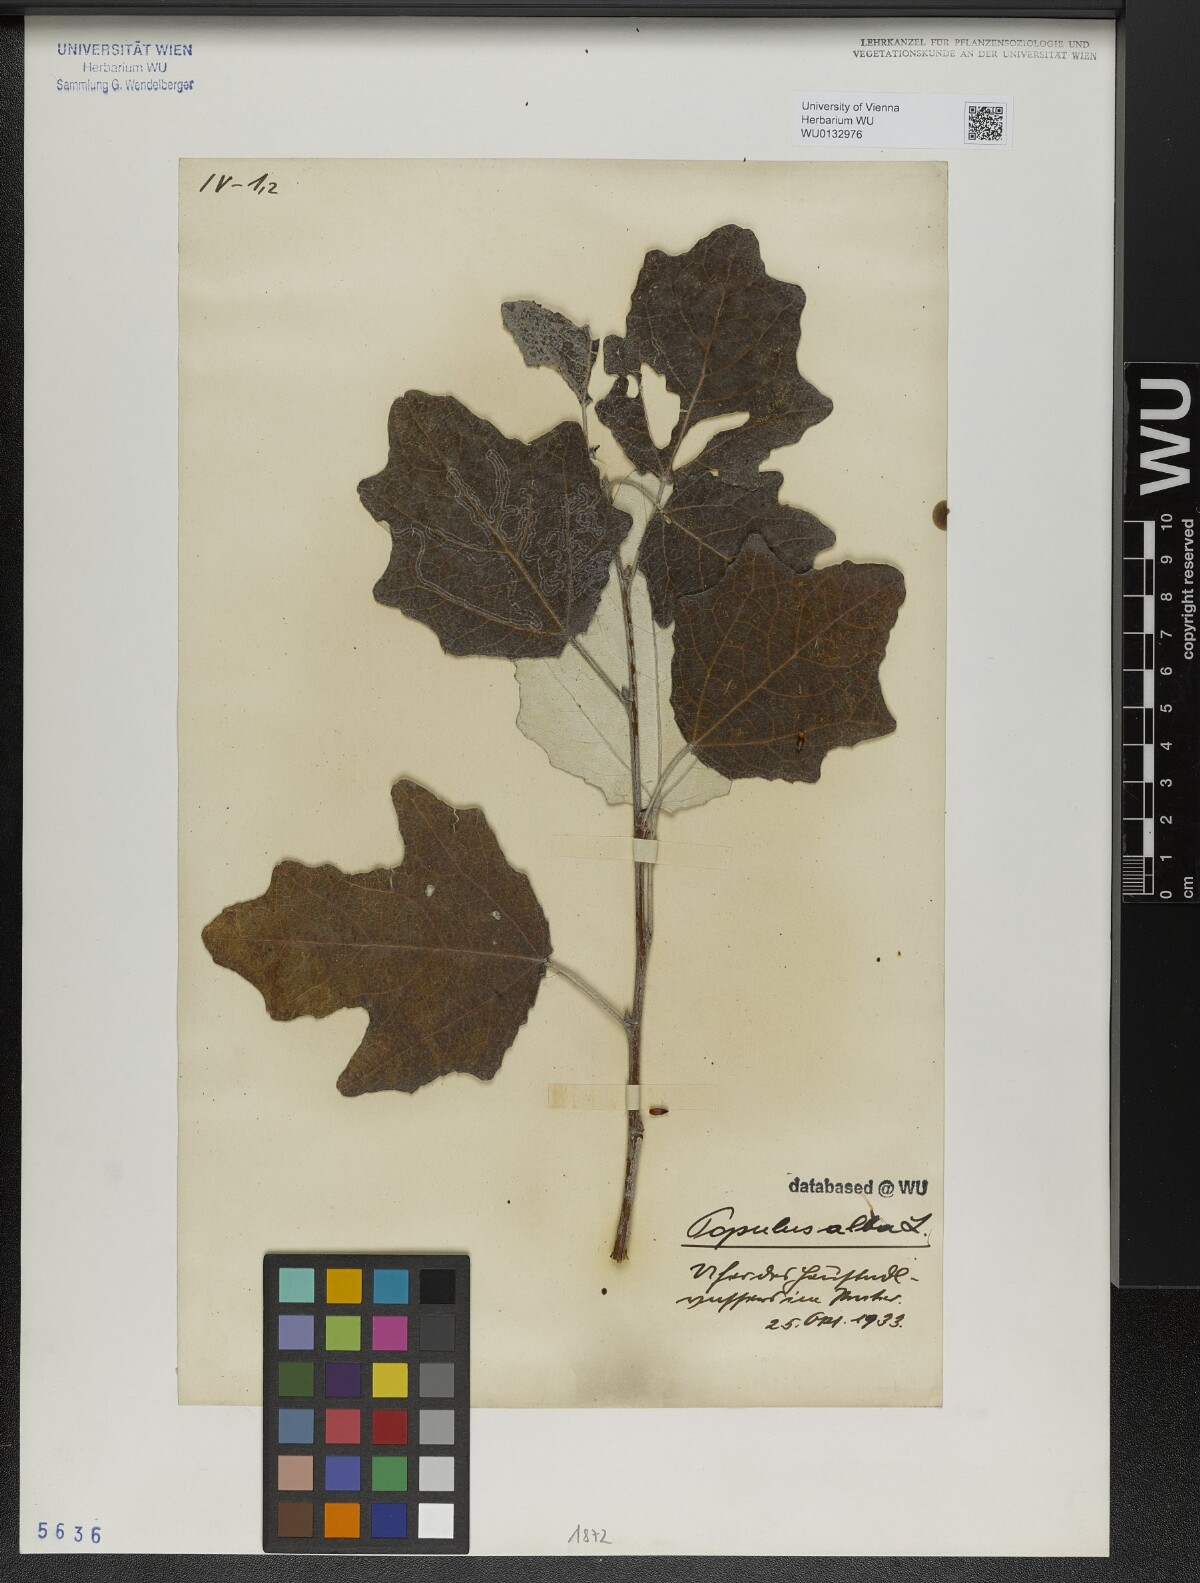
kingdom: Plantae
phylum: Tracheophyta
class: Magnoliopsida
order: Malpighiales
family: Salicaceae
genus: Populus
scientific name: Populus alba
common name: White poplar
